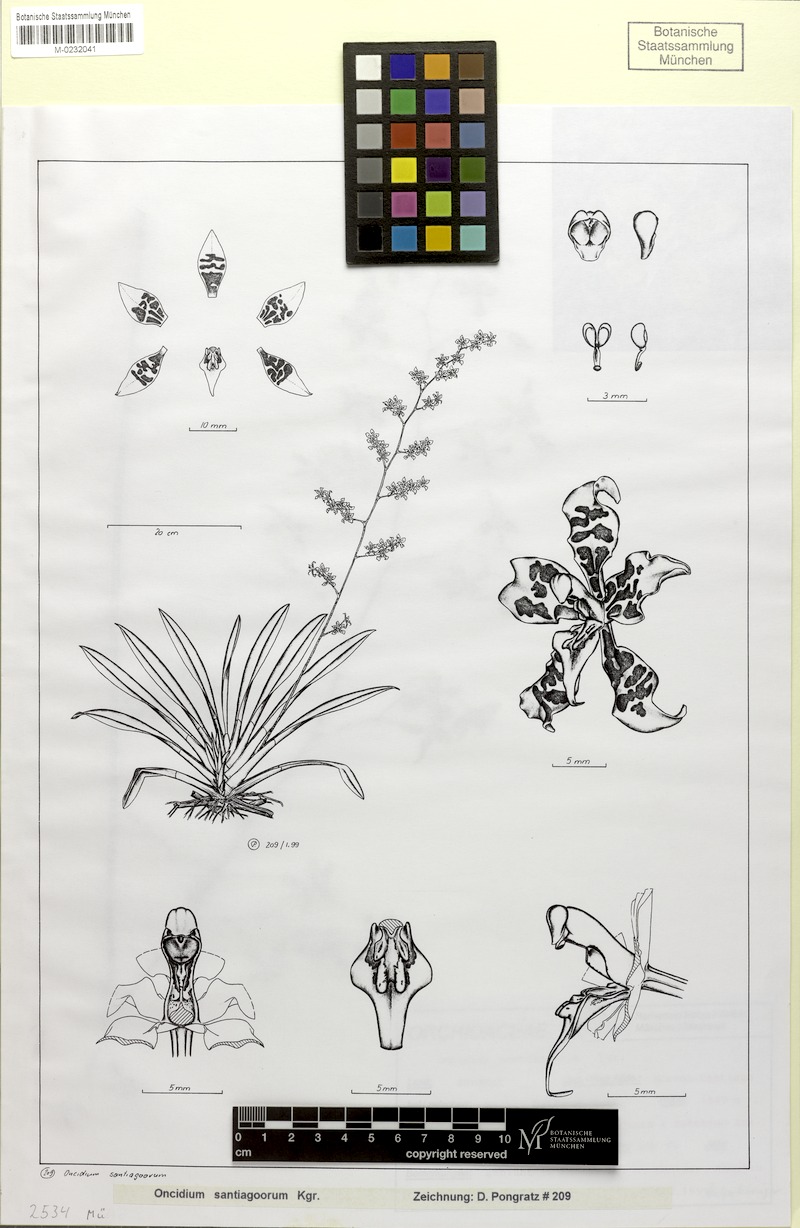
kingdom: Plantae
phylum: Tracheophyta
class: Liliopsida
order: Asparagales
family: Orchidaceae
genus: Cyrtochilum
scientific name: Cyrtochilum macasense
